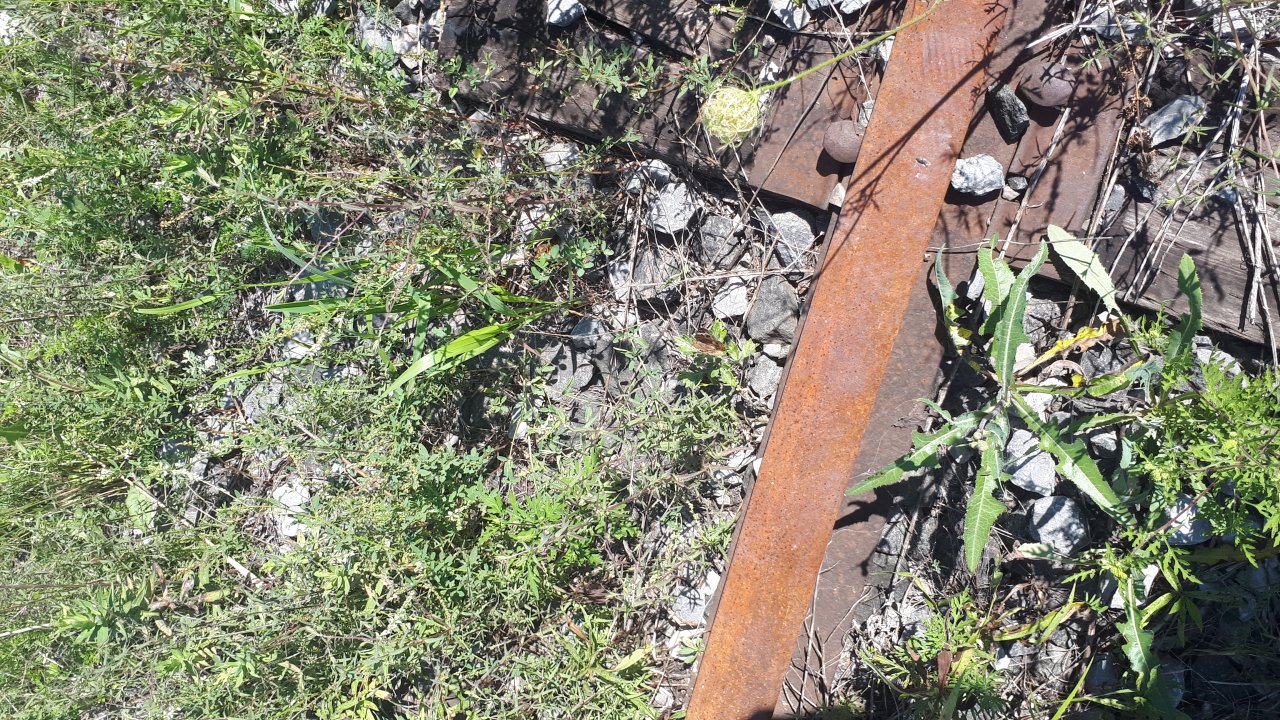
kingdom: Animalia
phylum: Arthropoda
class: Insecta
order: Lepidoptera
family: Nymphalidae
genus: Junonia
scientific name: Junonia coenia
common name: Common Buckeye
